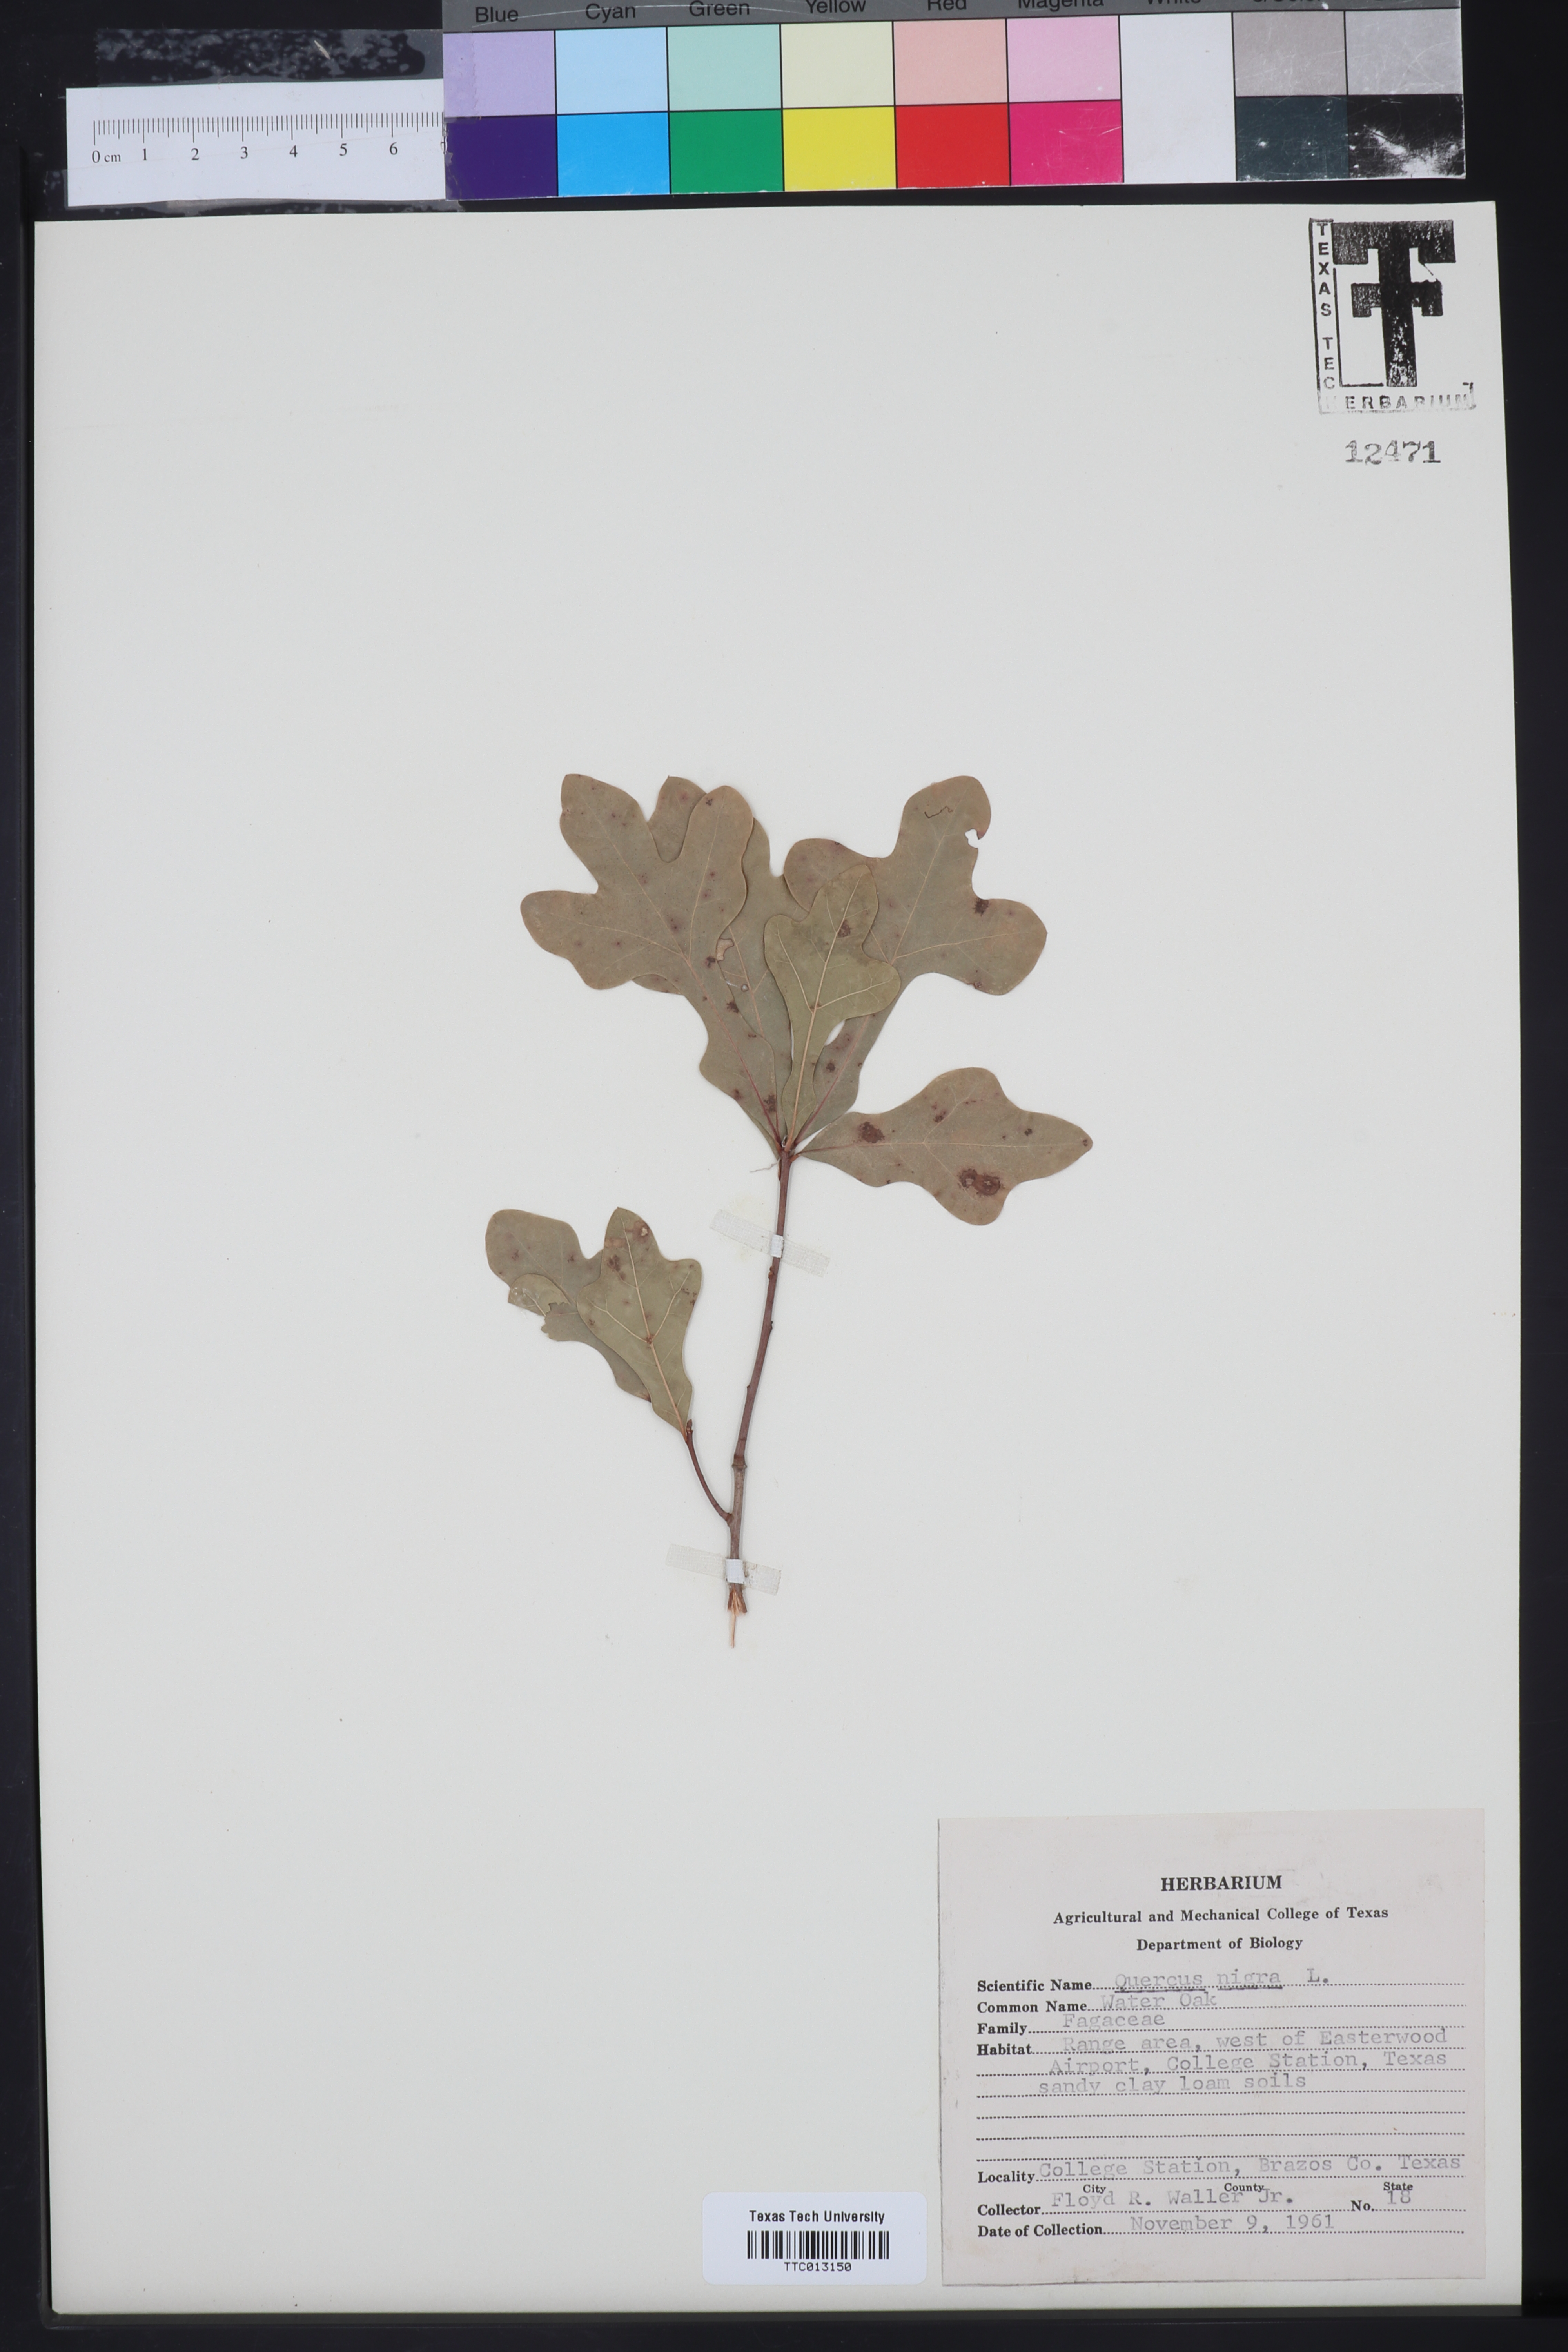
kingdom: Plantae
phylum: Tracheophyta
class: Magnoliopsida
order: Fagales
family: Fagaceae
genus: Quercus
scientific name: Quercus nigra
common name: Water oak
